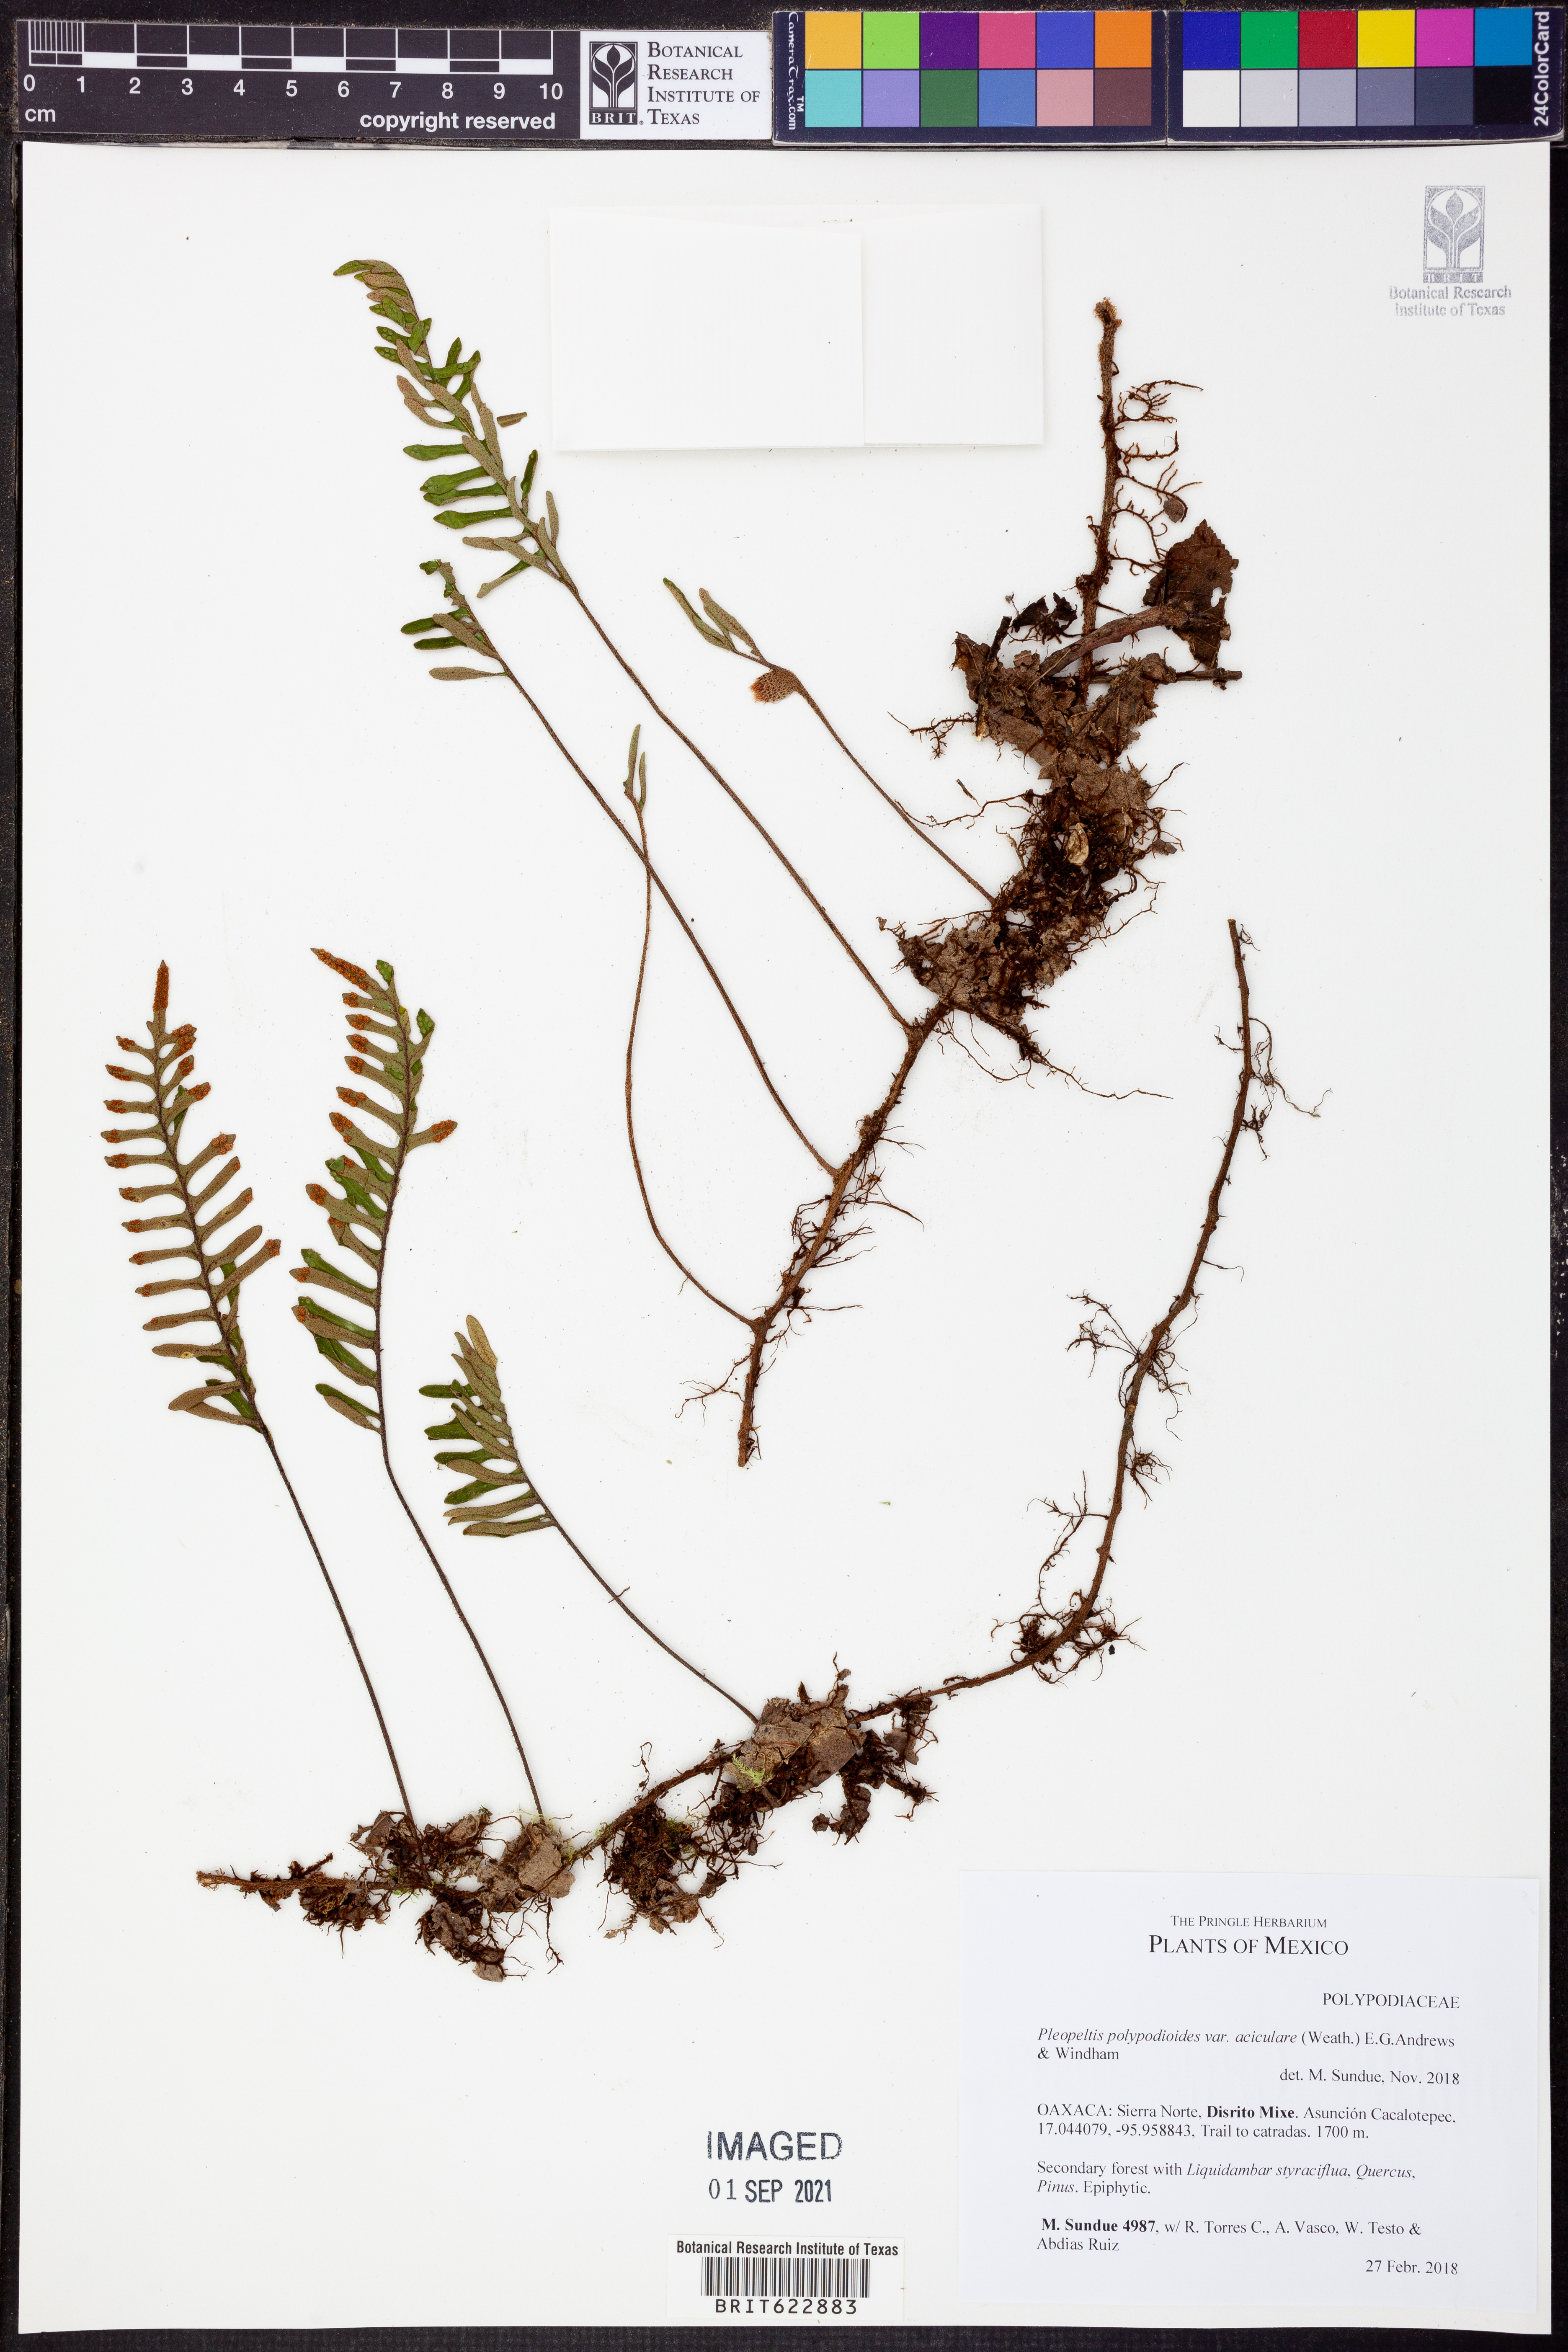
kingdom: Plantae
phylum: Tracheophyta
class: Polypodiopsida
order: Polypodiales
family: Polypodiaceae
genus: Pleopeltis
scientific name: Pleopeltis acicularis
